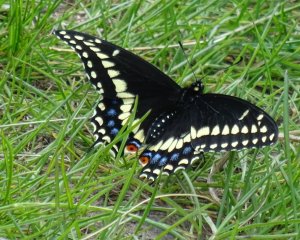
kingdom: Animalia
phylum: Arthropoda
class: Insecta
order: Lepidoptera
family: Papilionidae
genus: Papilio
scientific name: Papilio polyxenes
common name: Black Swallowtail
